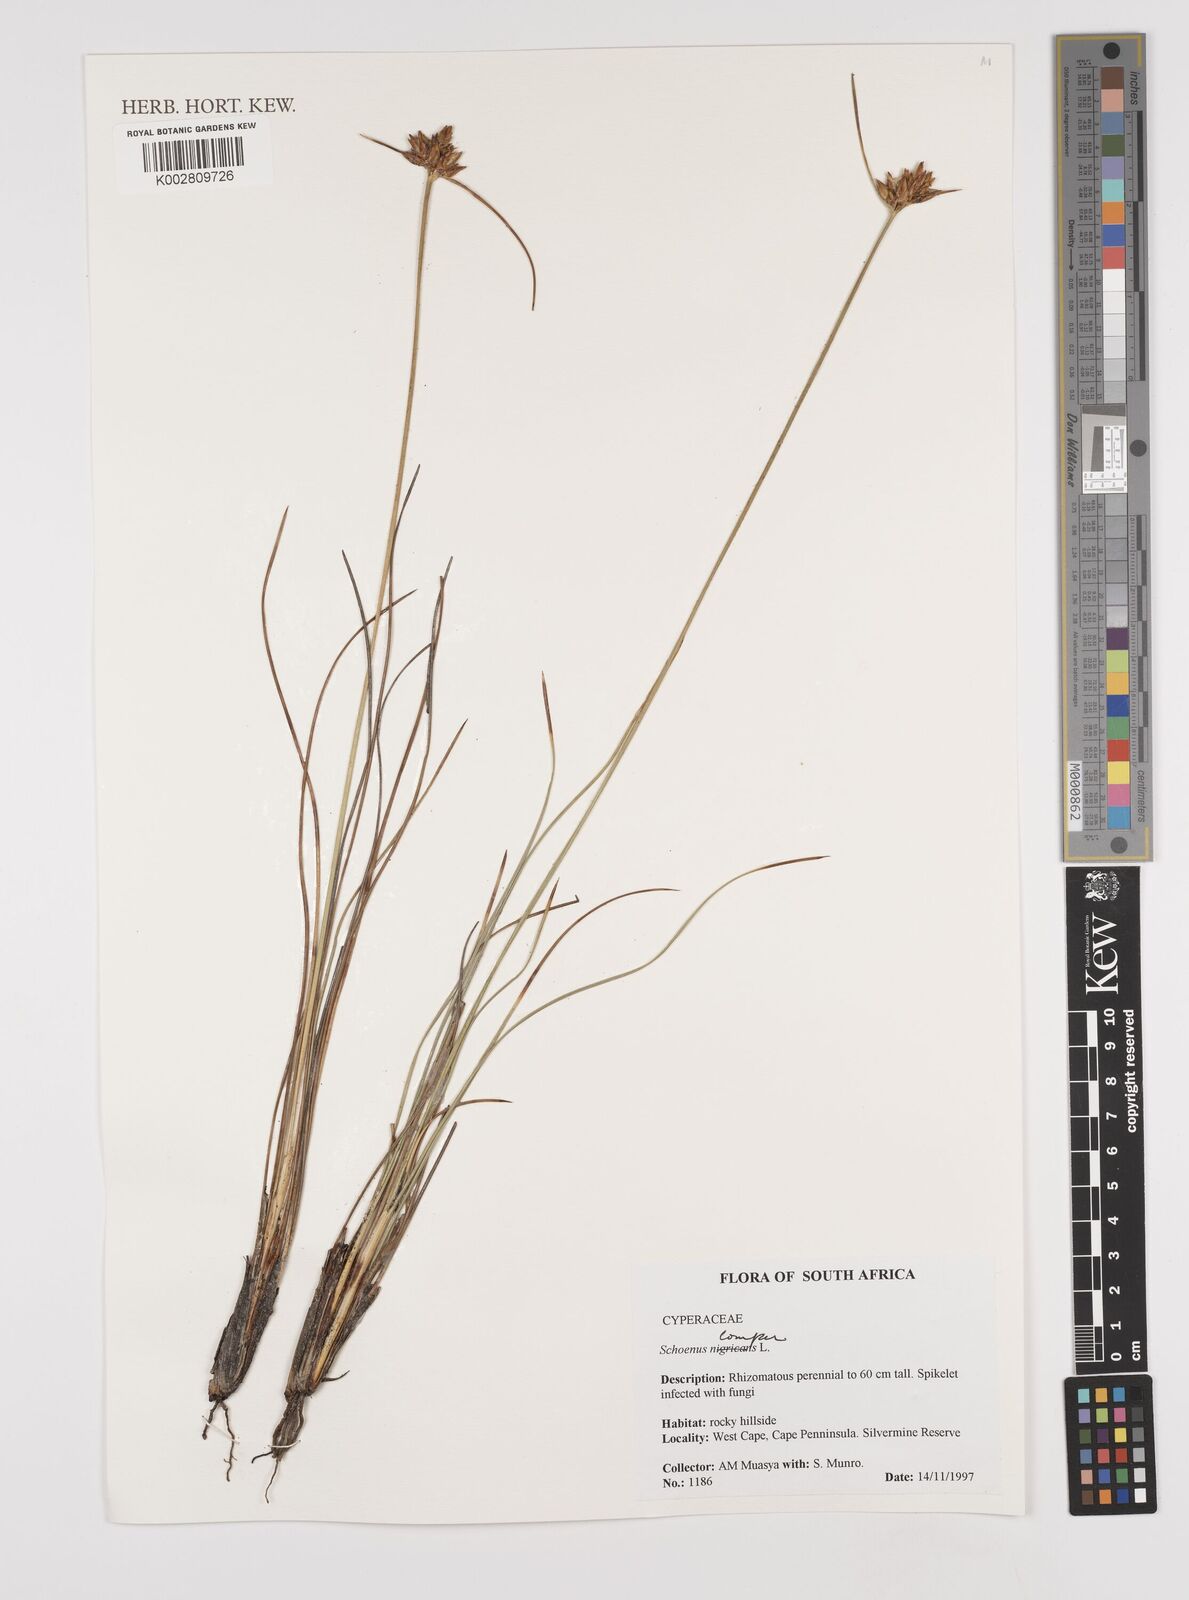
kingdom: Plantae
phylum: Tracheophyta
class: Liliopsida
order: Poales
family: Cyperaceae
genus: Schoenus
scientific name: Schoenus compar
